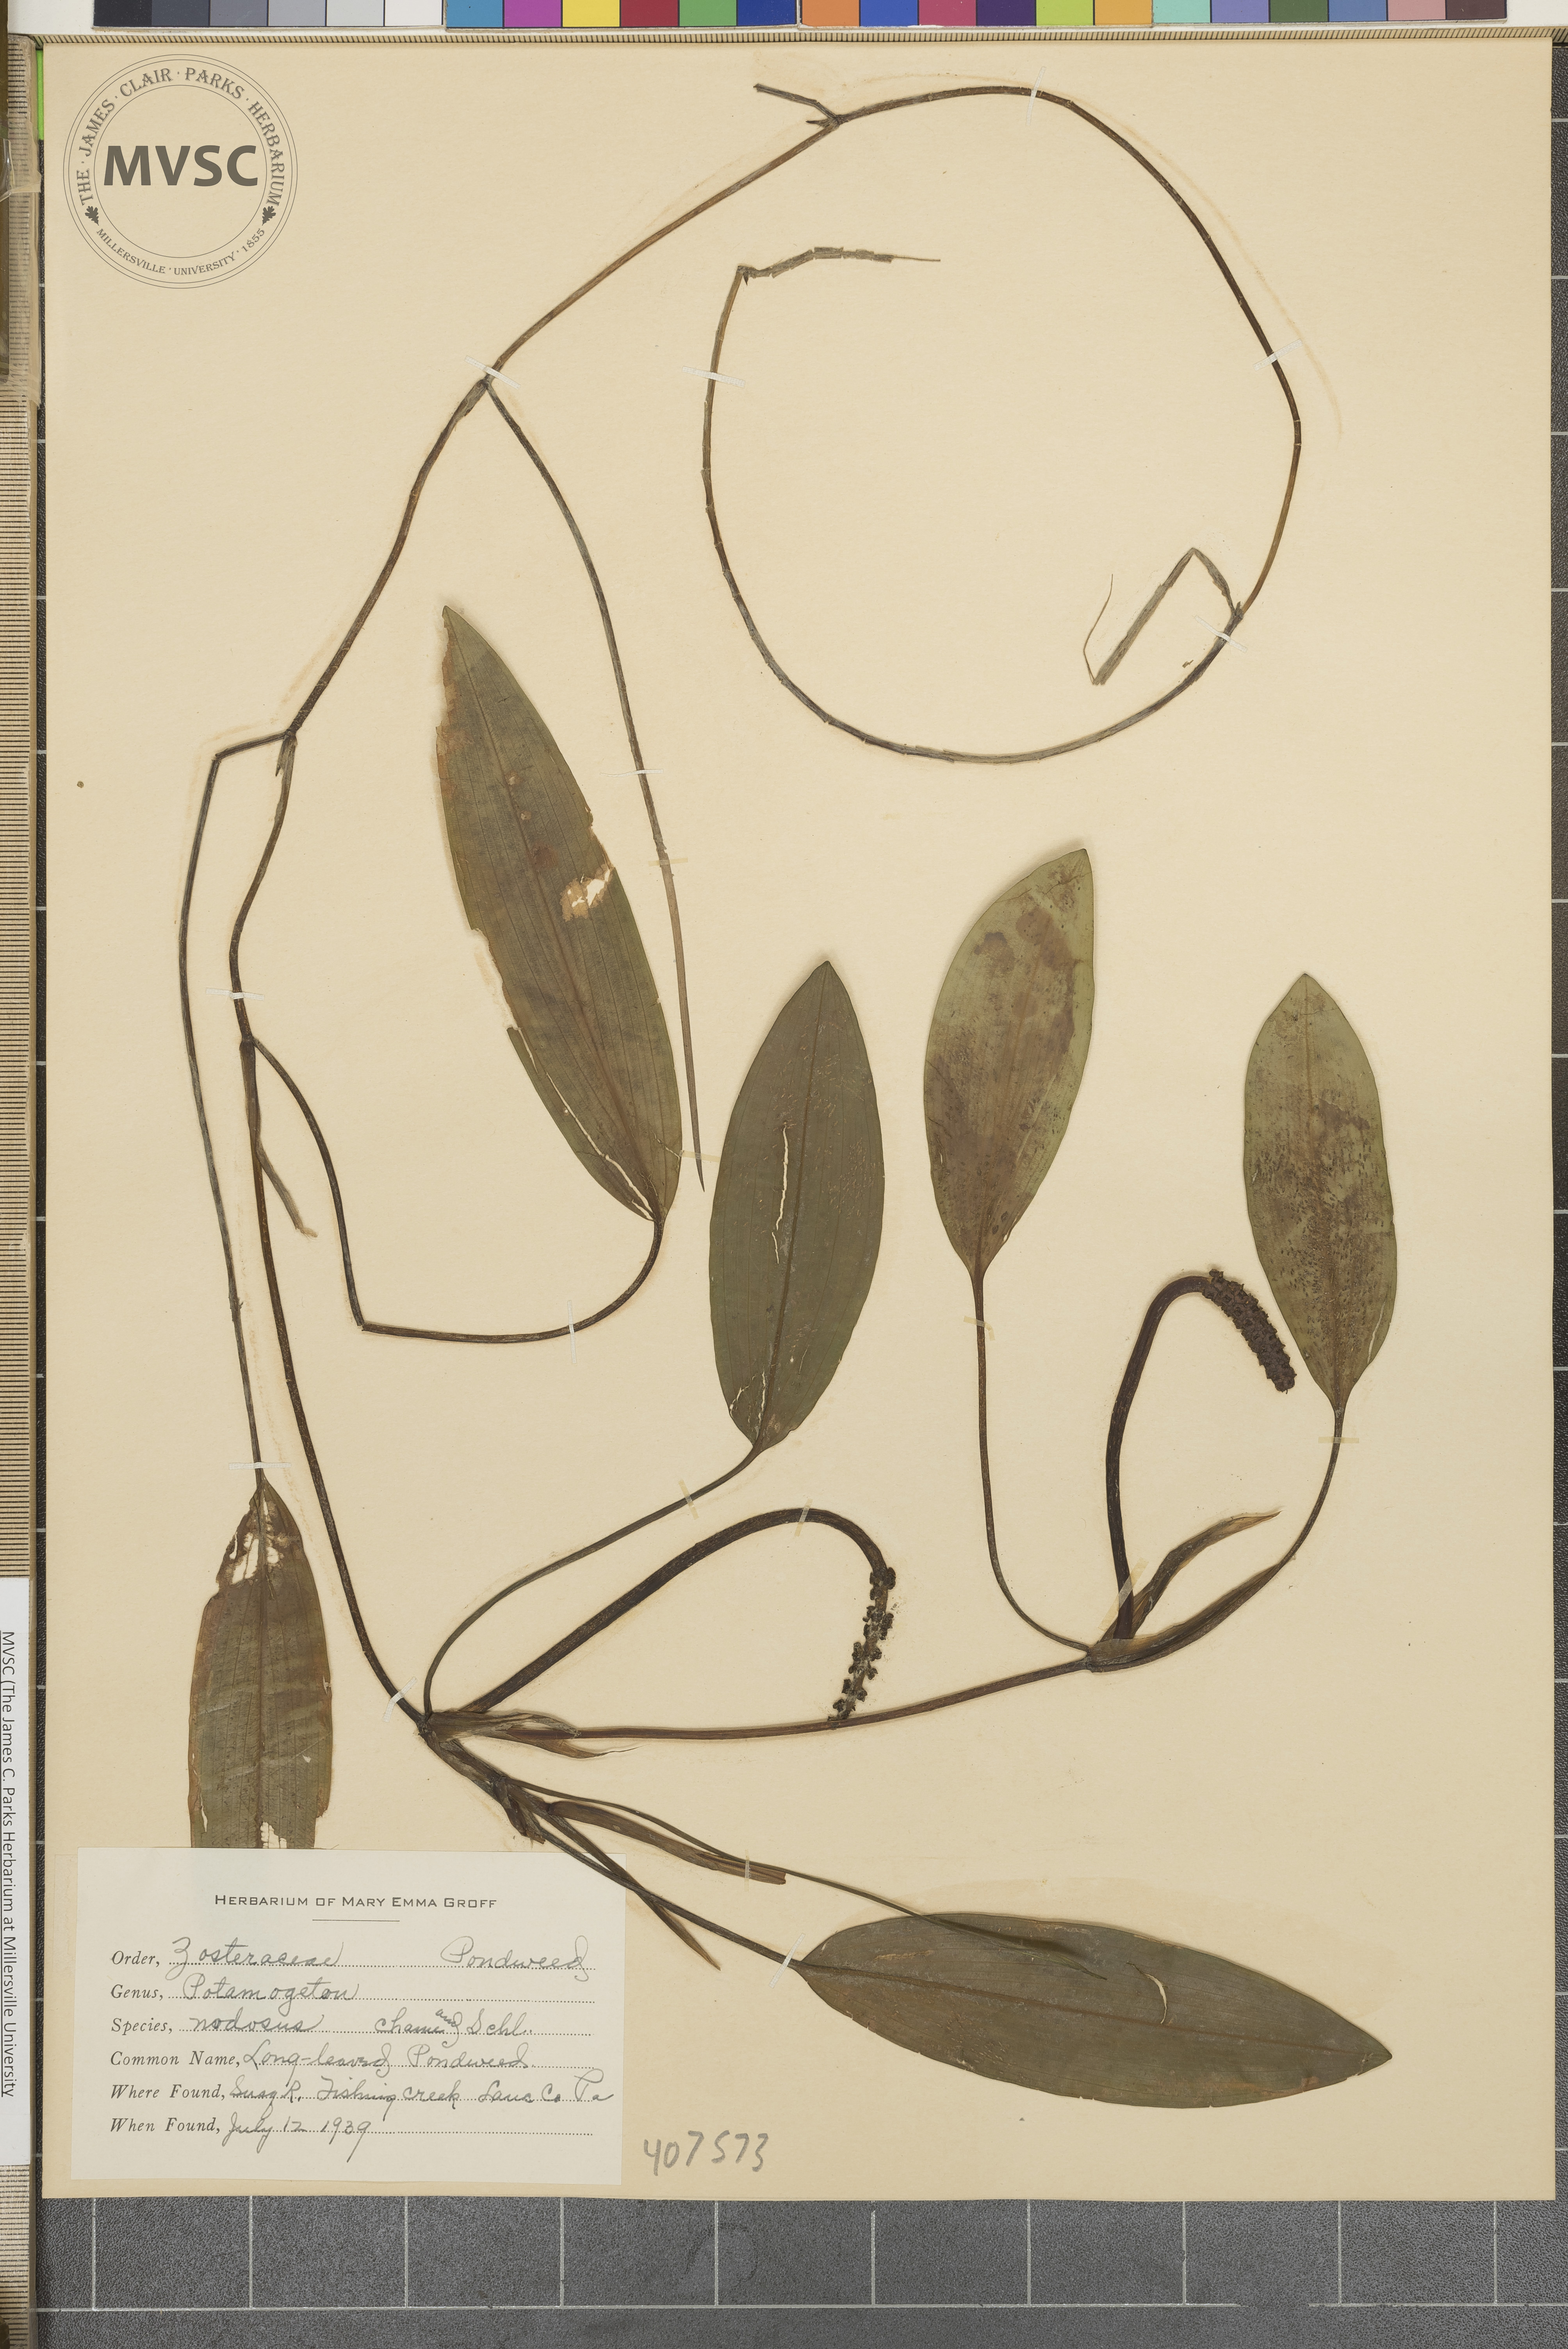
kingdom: Plantae
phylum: Tracheophyta
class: Liliopsida
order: Alismatales
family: Potamogetonaceae
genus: Potamogeton
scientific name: Potamogeton nodosus
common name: Loddon pondweed
